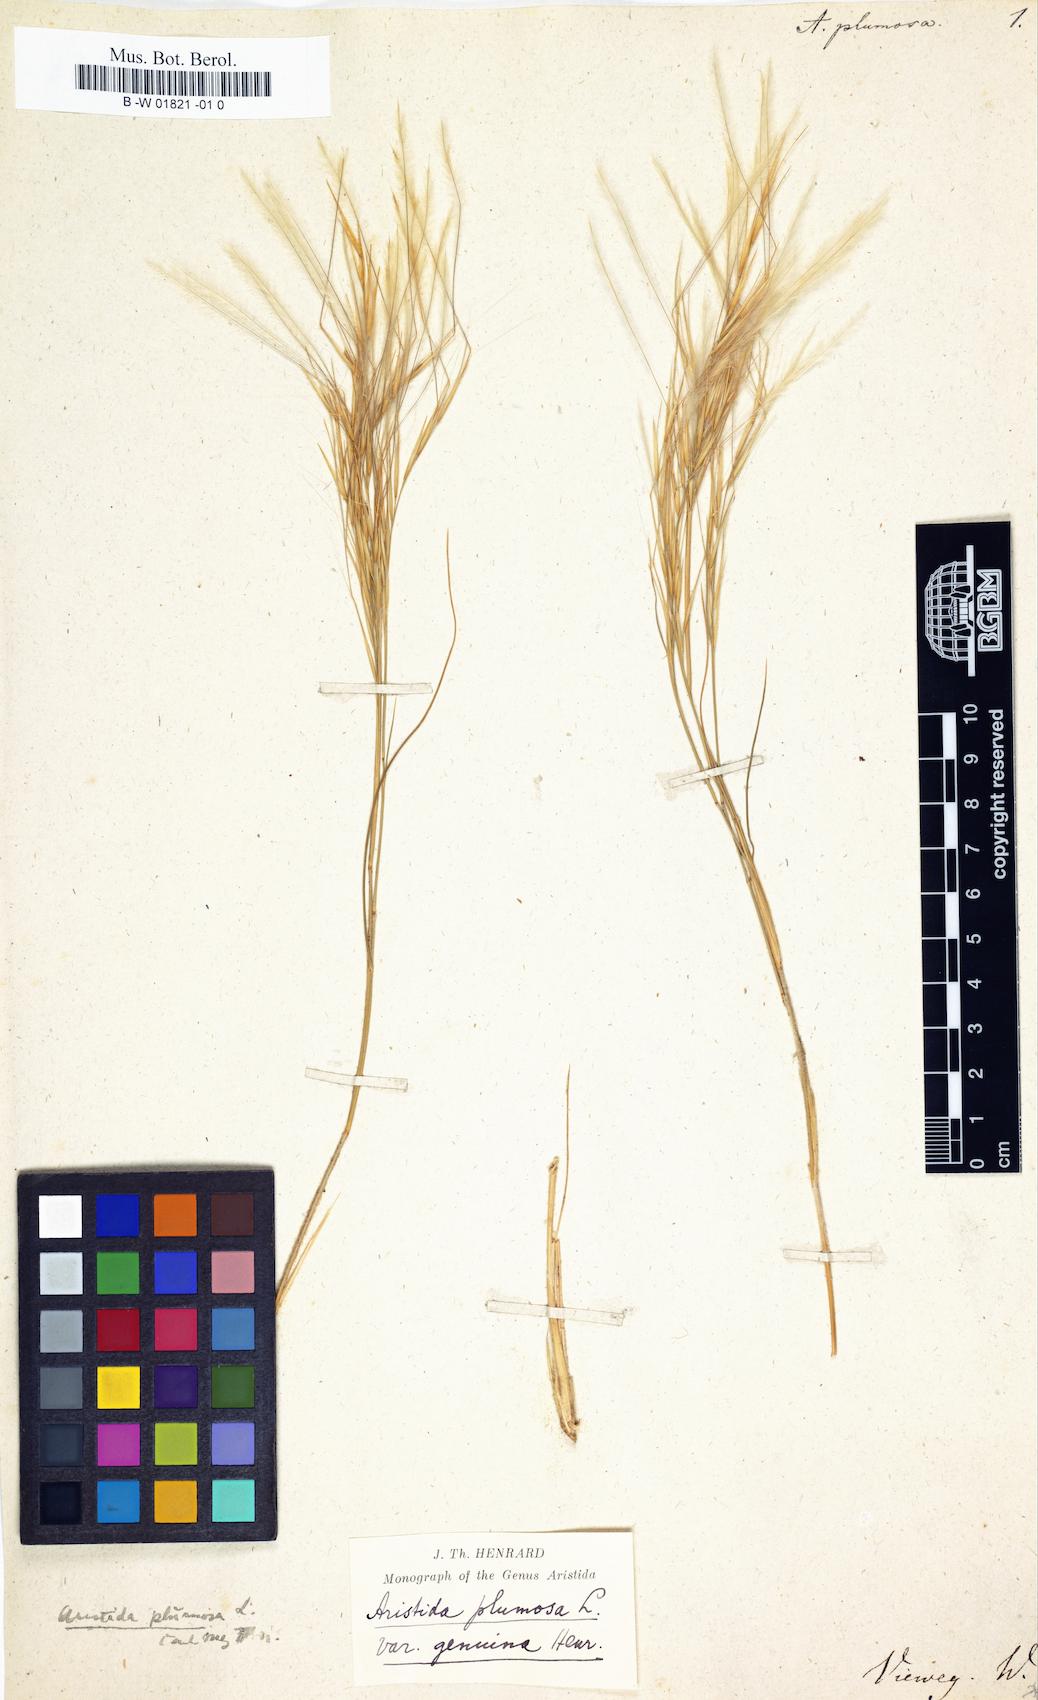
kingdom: Plantae
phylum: Tracheophyta
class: Liliopsida
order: Poales
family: Poaceae
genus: Stipagrostis
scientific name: Stipagrostis plumosa
